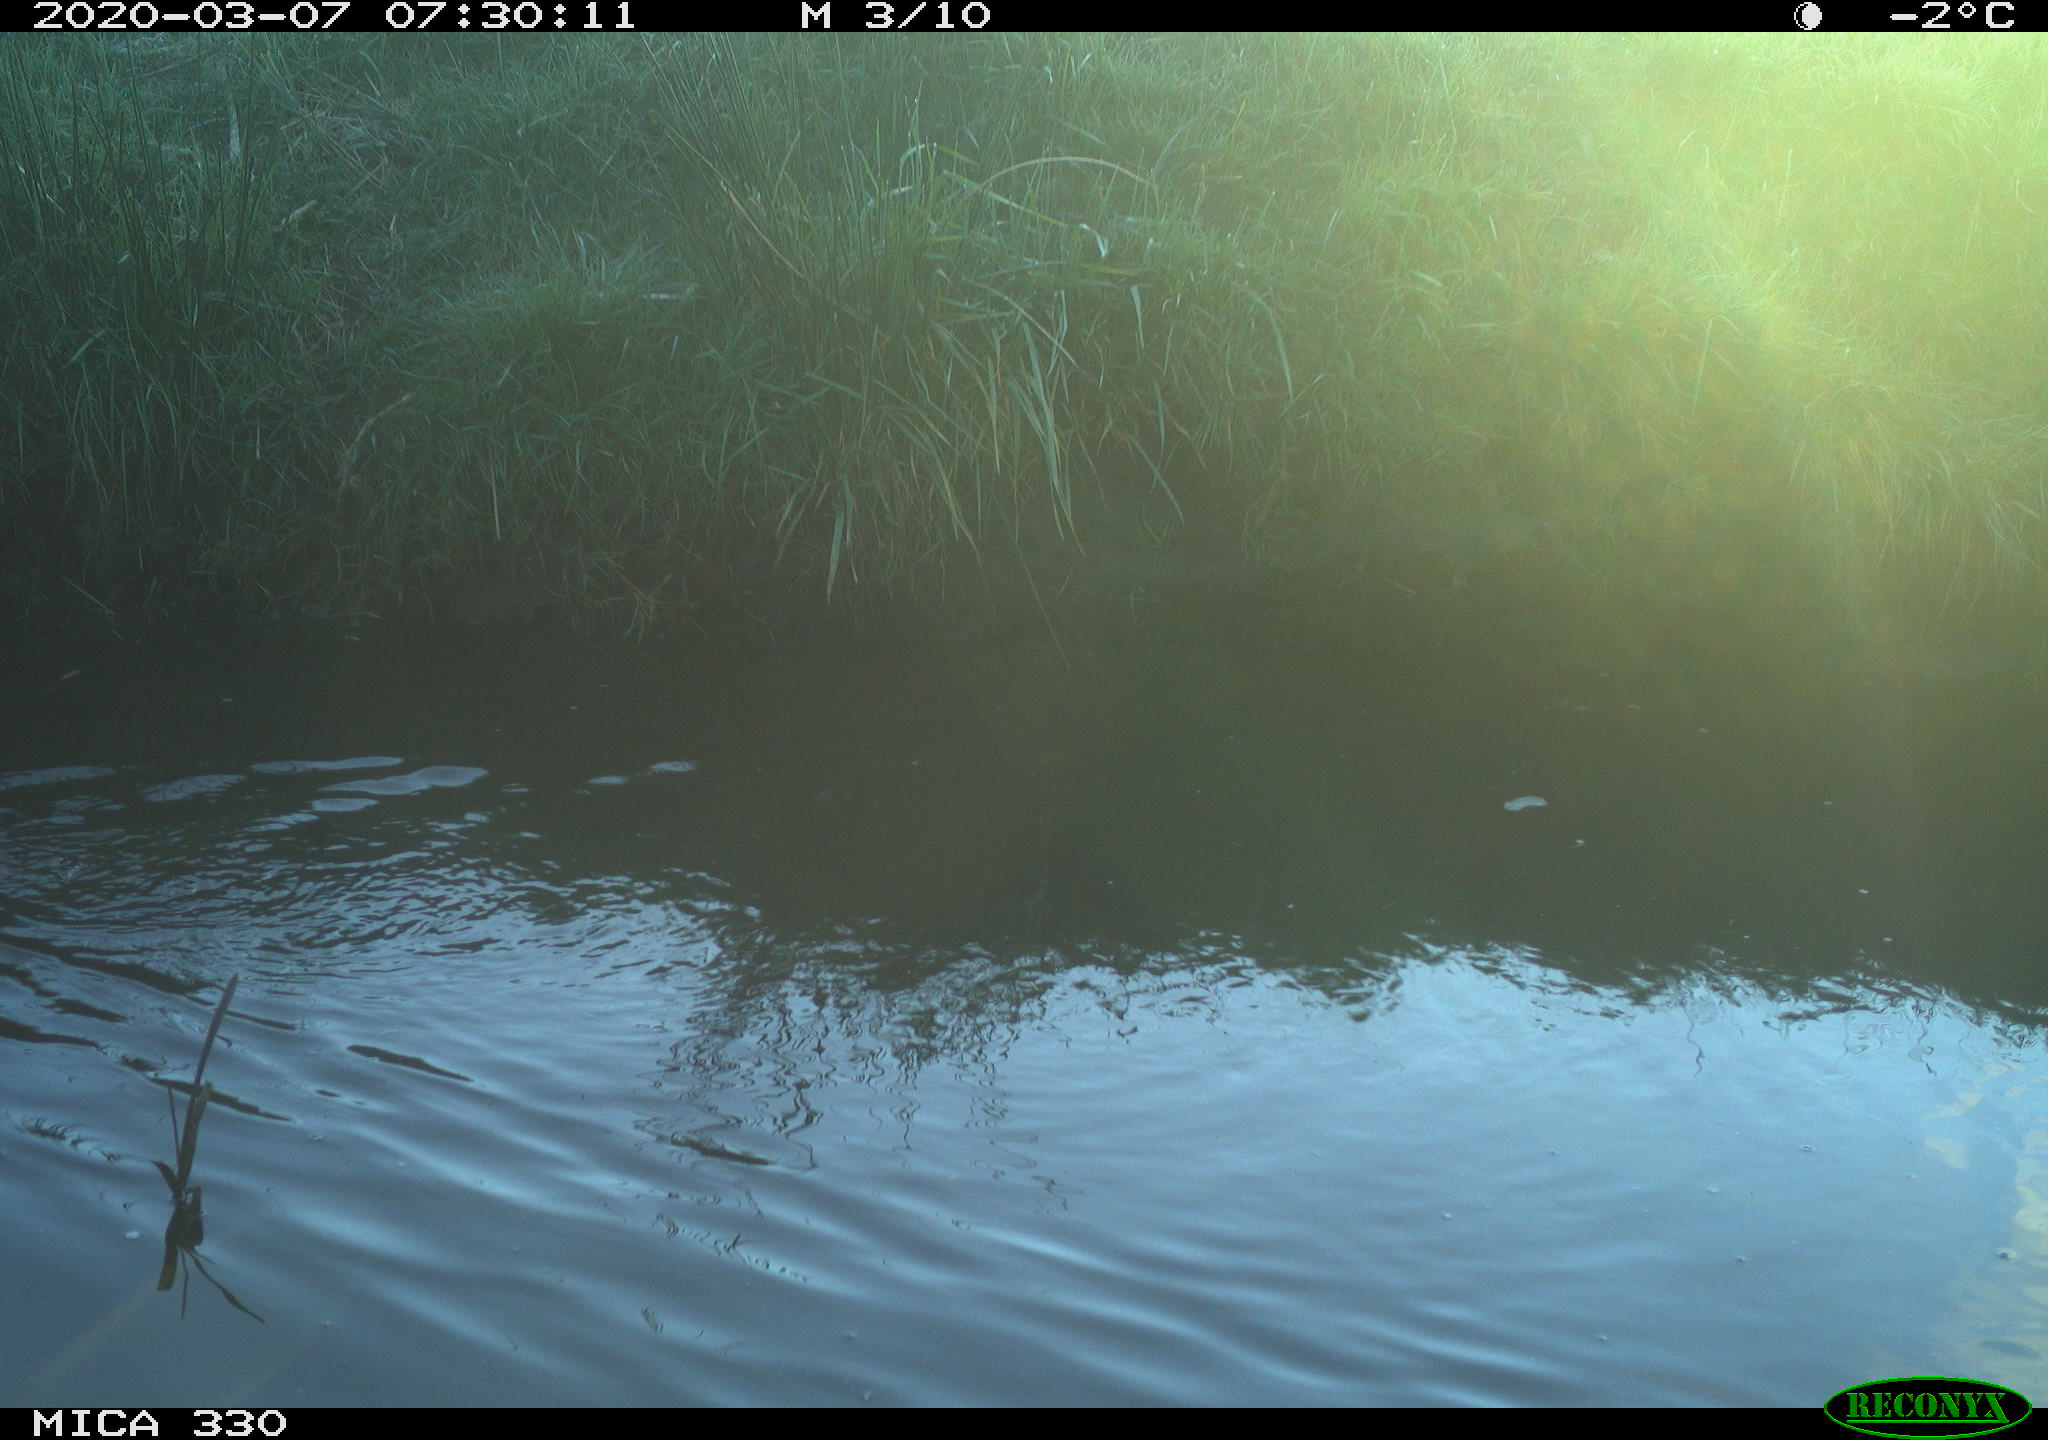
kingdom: Animalia
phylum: Chordata
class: Aves
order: Anseriformes
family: Anatidae
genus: Anas
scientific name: Anas platyrhynchos
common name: Mallard
